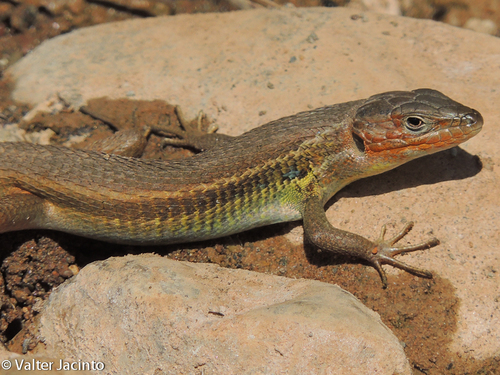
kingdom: Animalia
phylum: Chordata
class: Squamata
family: Lacertidae
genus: Psammodromus
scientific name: Psammodromus algirus
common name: Algerian psammodromus
